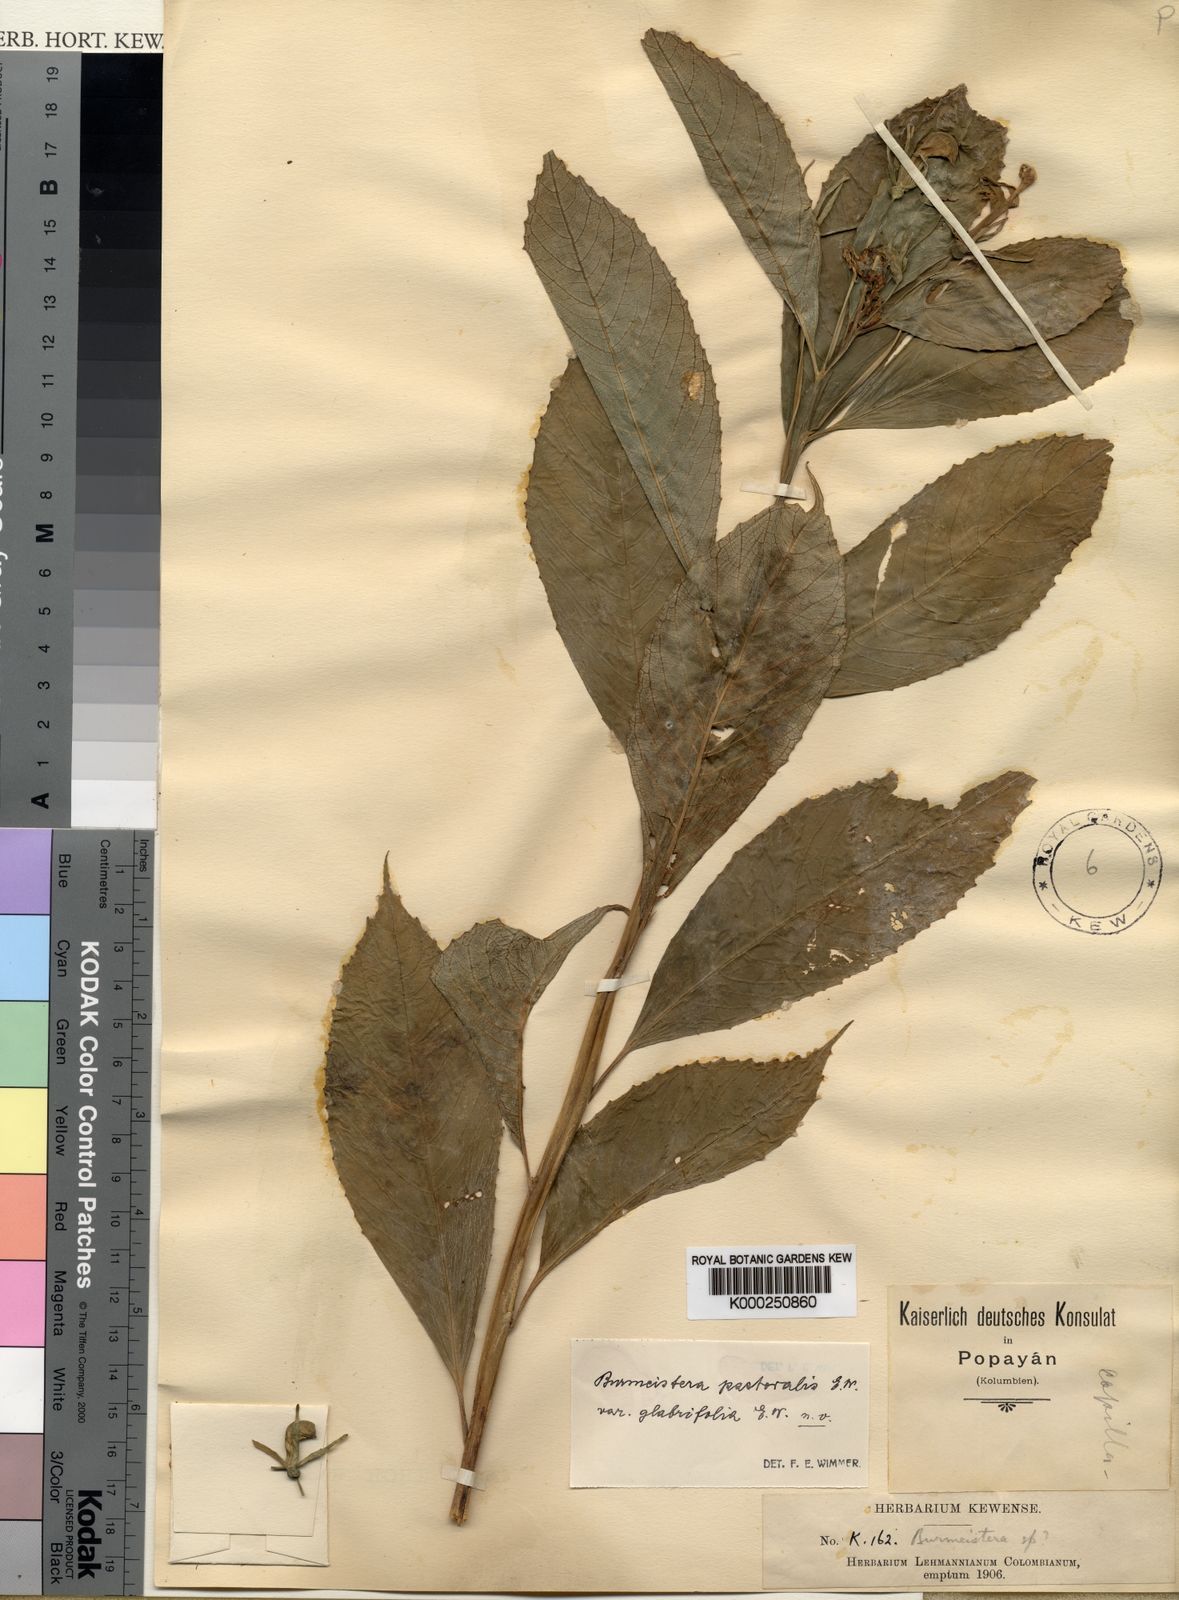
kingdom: Plantae
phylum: Tracheophyta
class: Magnoliopsida
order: Asterales
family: Campanulaceae
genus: Burmeistera
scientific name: Burmeistera pastoralis
